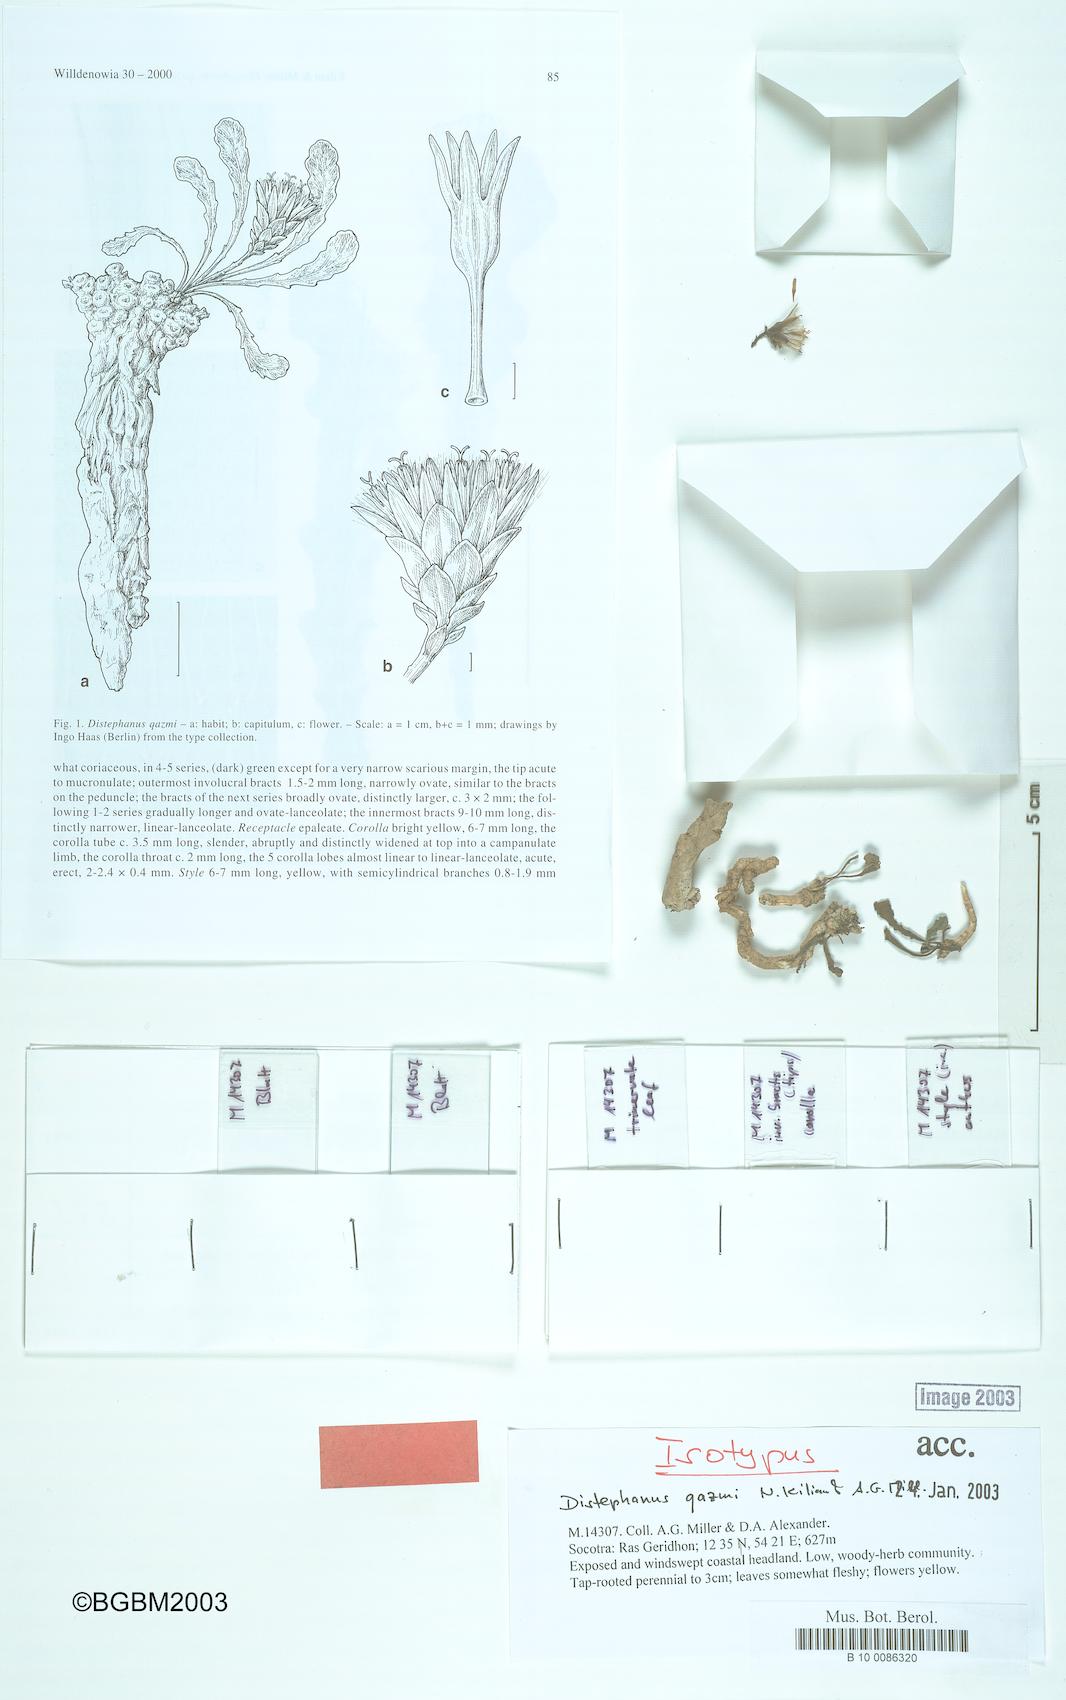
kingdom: Plantae
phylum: Tracheophyta
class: Magnoliopsida
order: Asterales
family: Asteraceae
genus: Distephanus
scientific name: Distephanus qazmi
